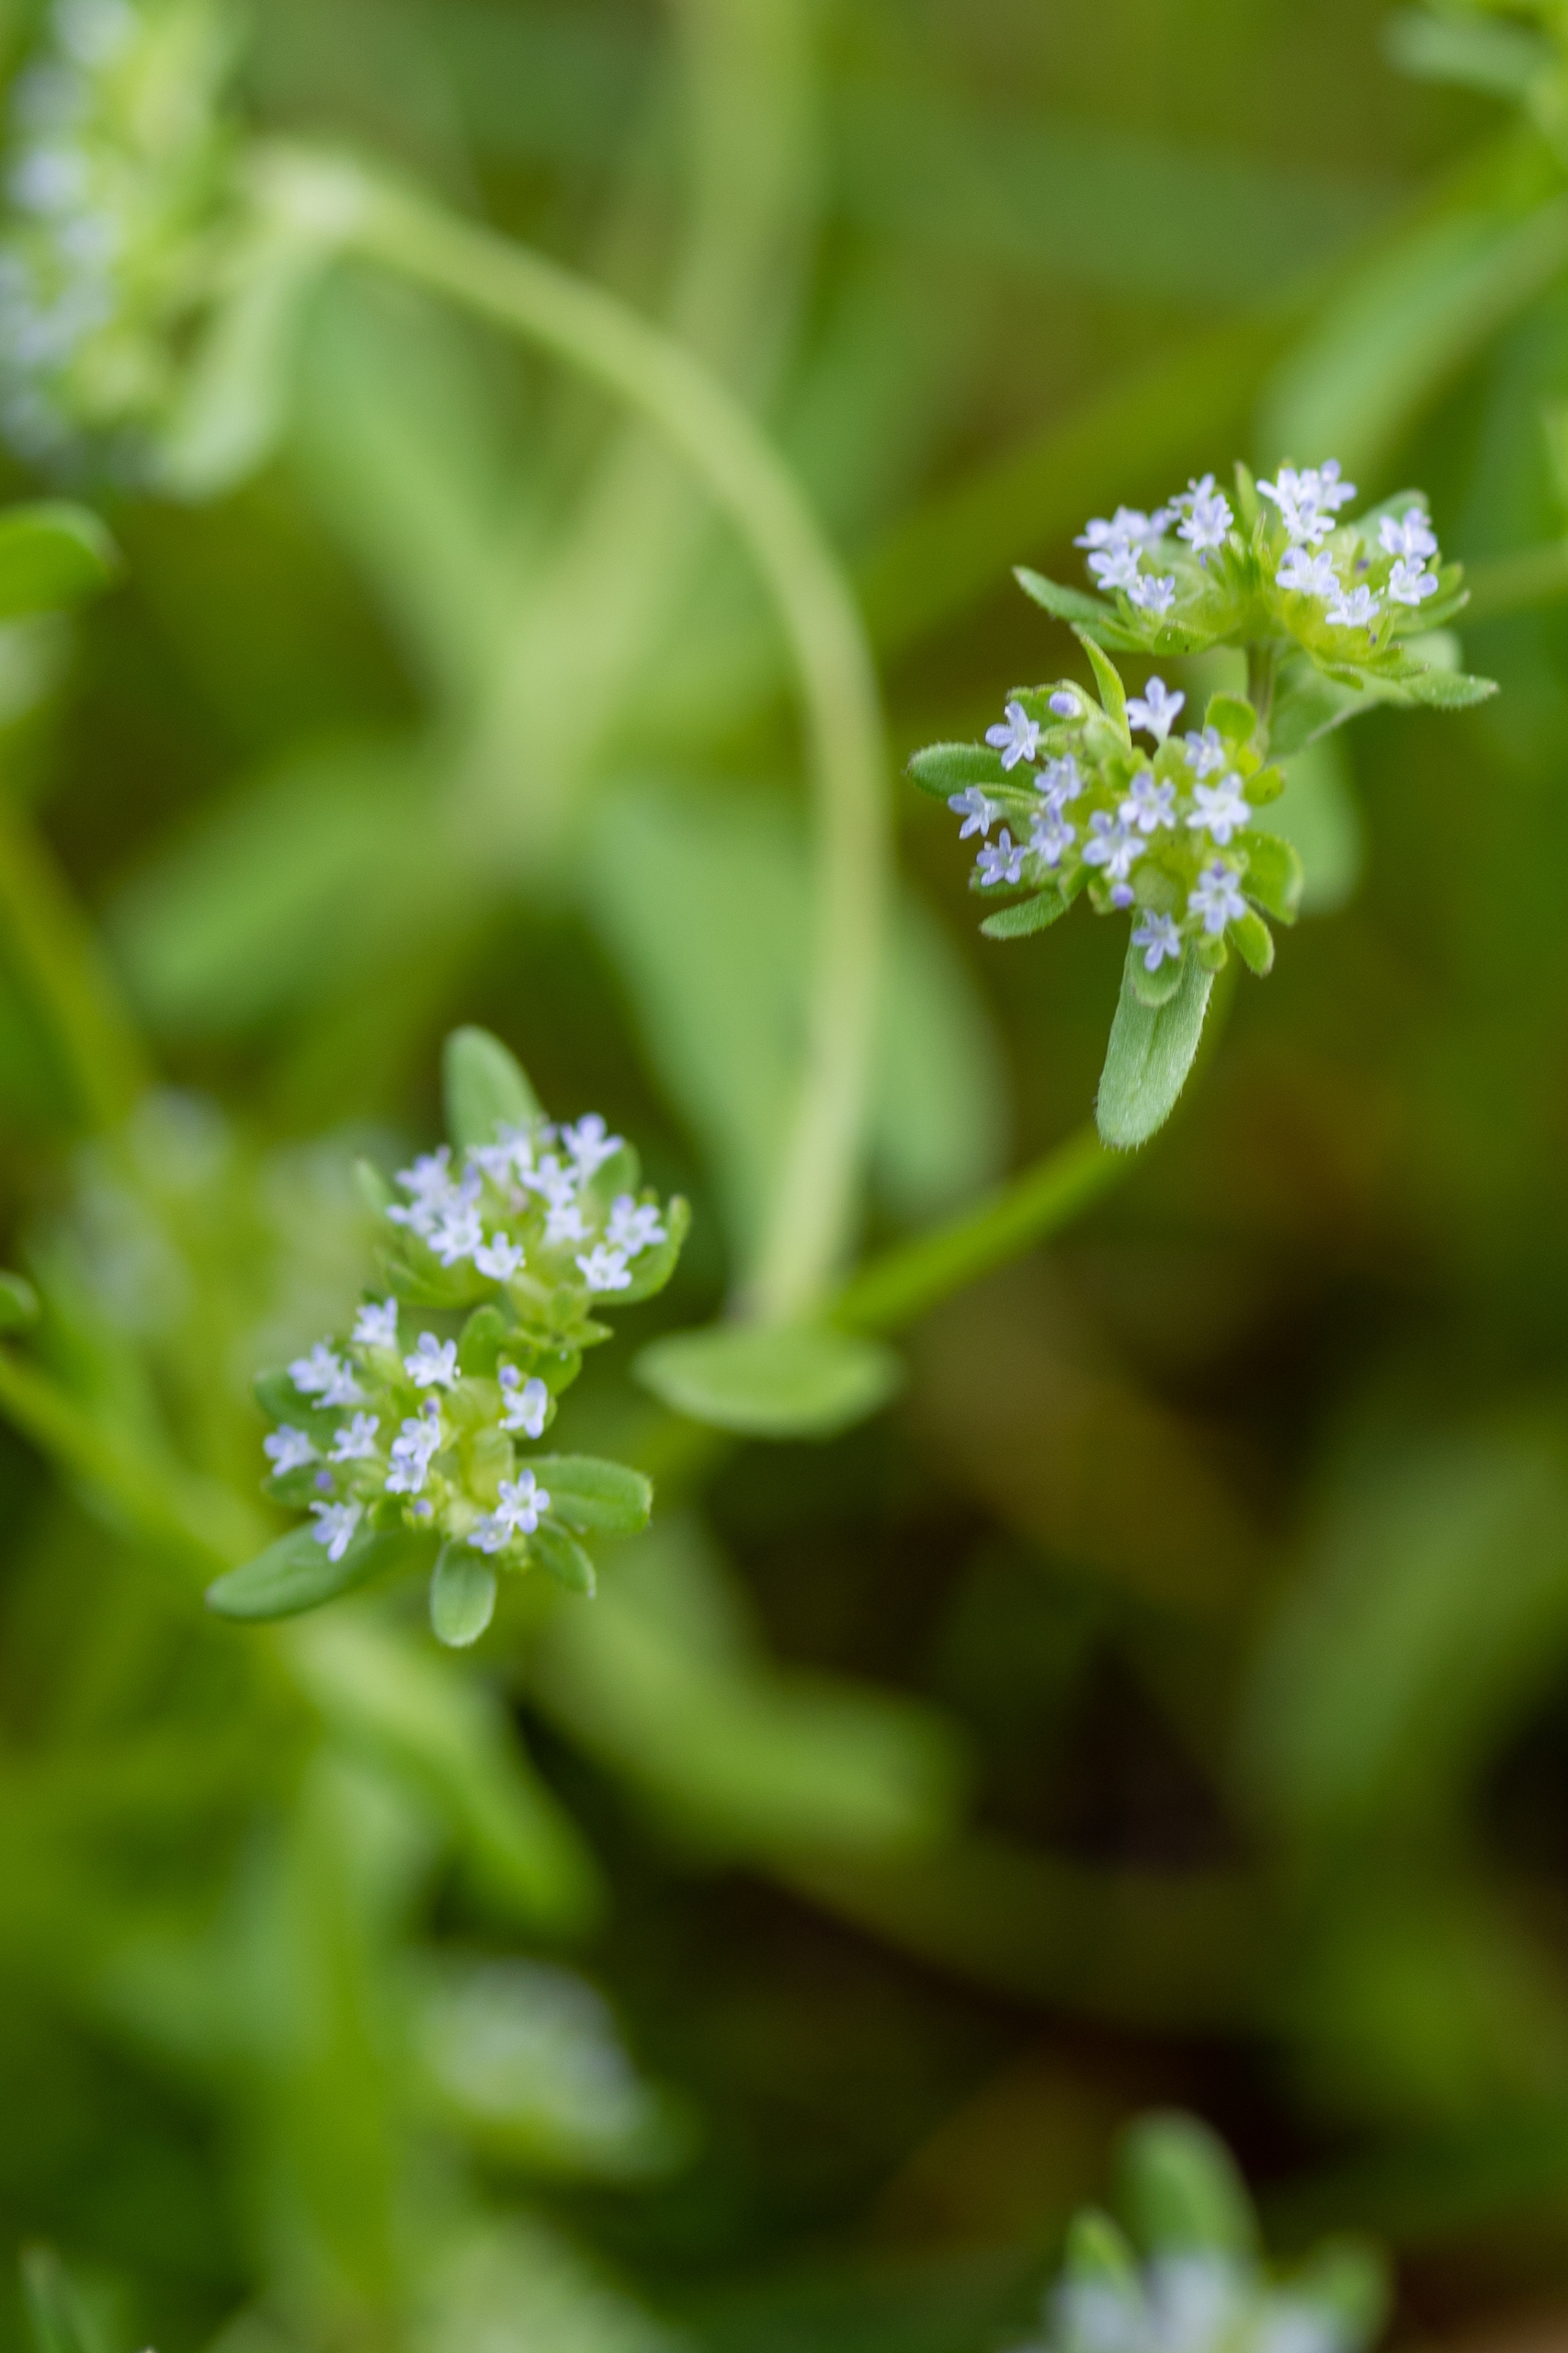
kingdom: Plantae
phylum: Tracheophyta
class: Magnoliopsida
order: Dipsacales
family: Caprifoliaceae
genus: Valerianella
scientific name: Valerianella locusta
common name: Tandfri vårsalat
